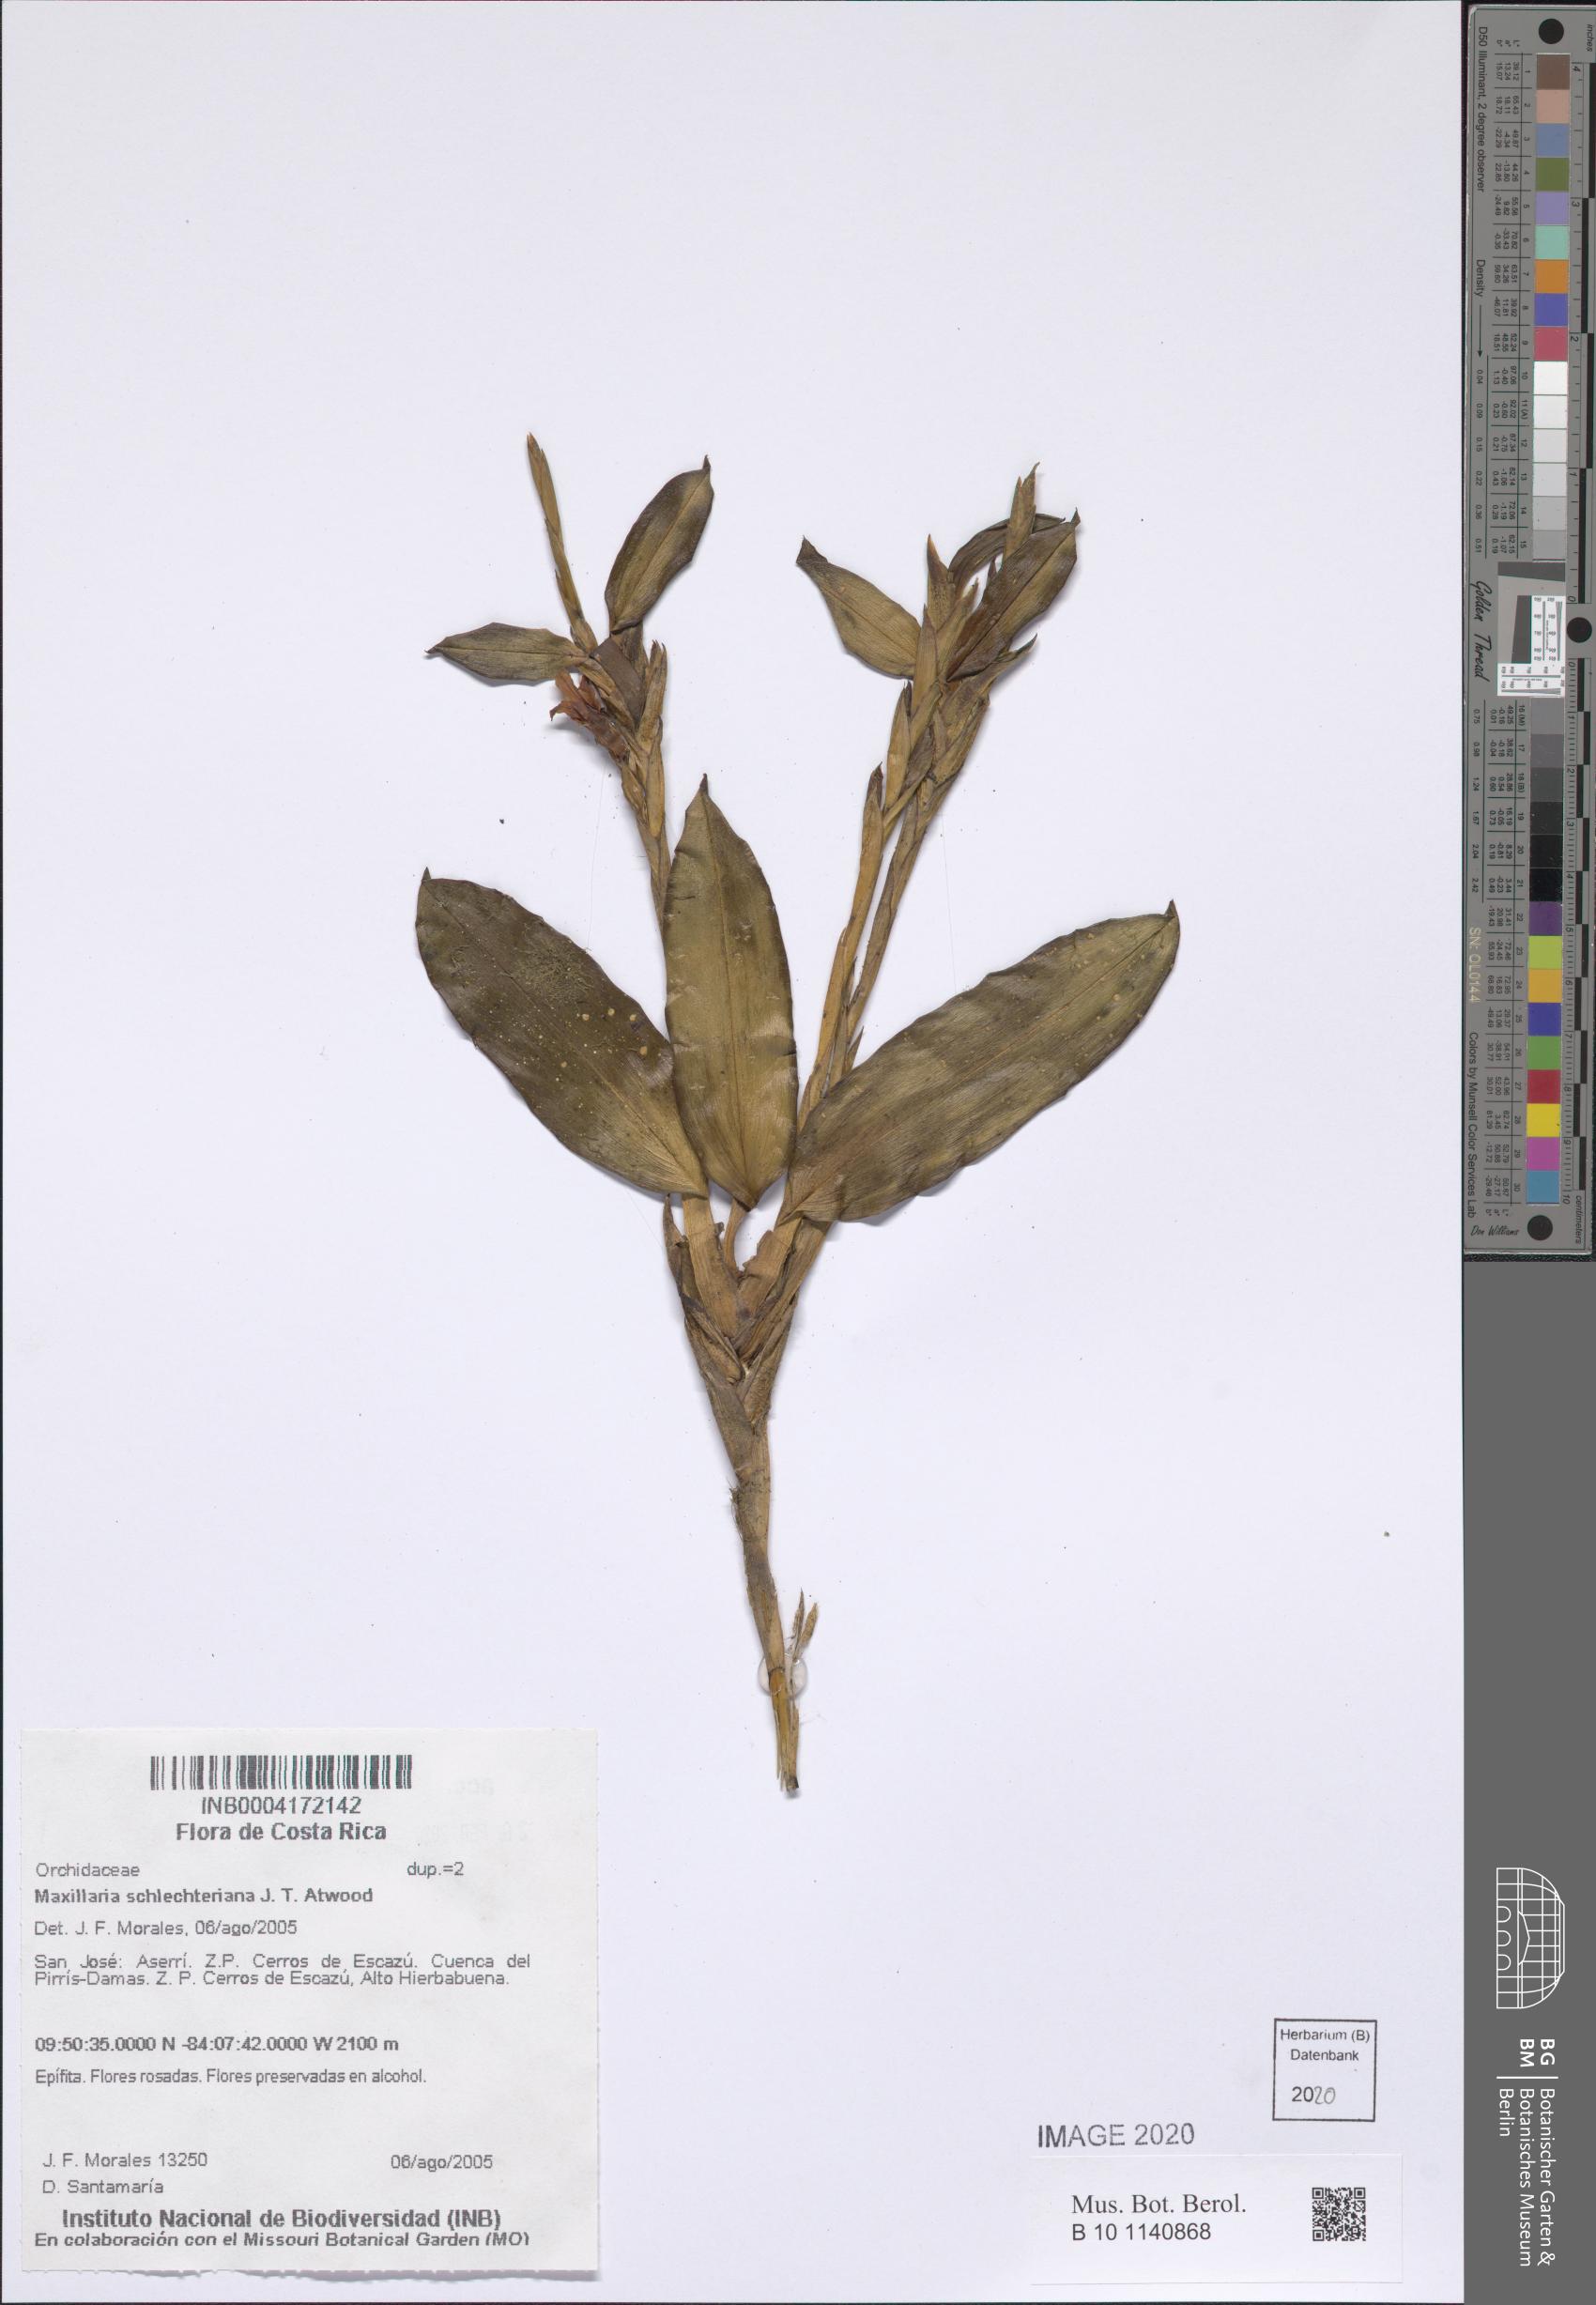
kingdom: Plantae
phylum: Tracheophyta
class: Liliopsida
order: Asparagales
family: Orchidaceae
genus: Maxillaria
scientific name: Maxillaria schlechteriana
